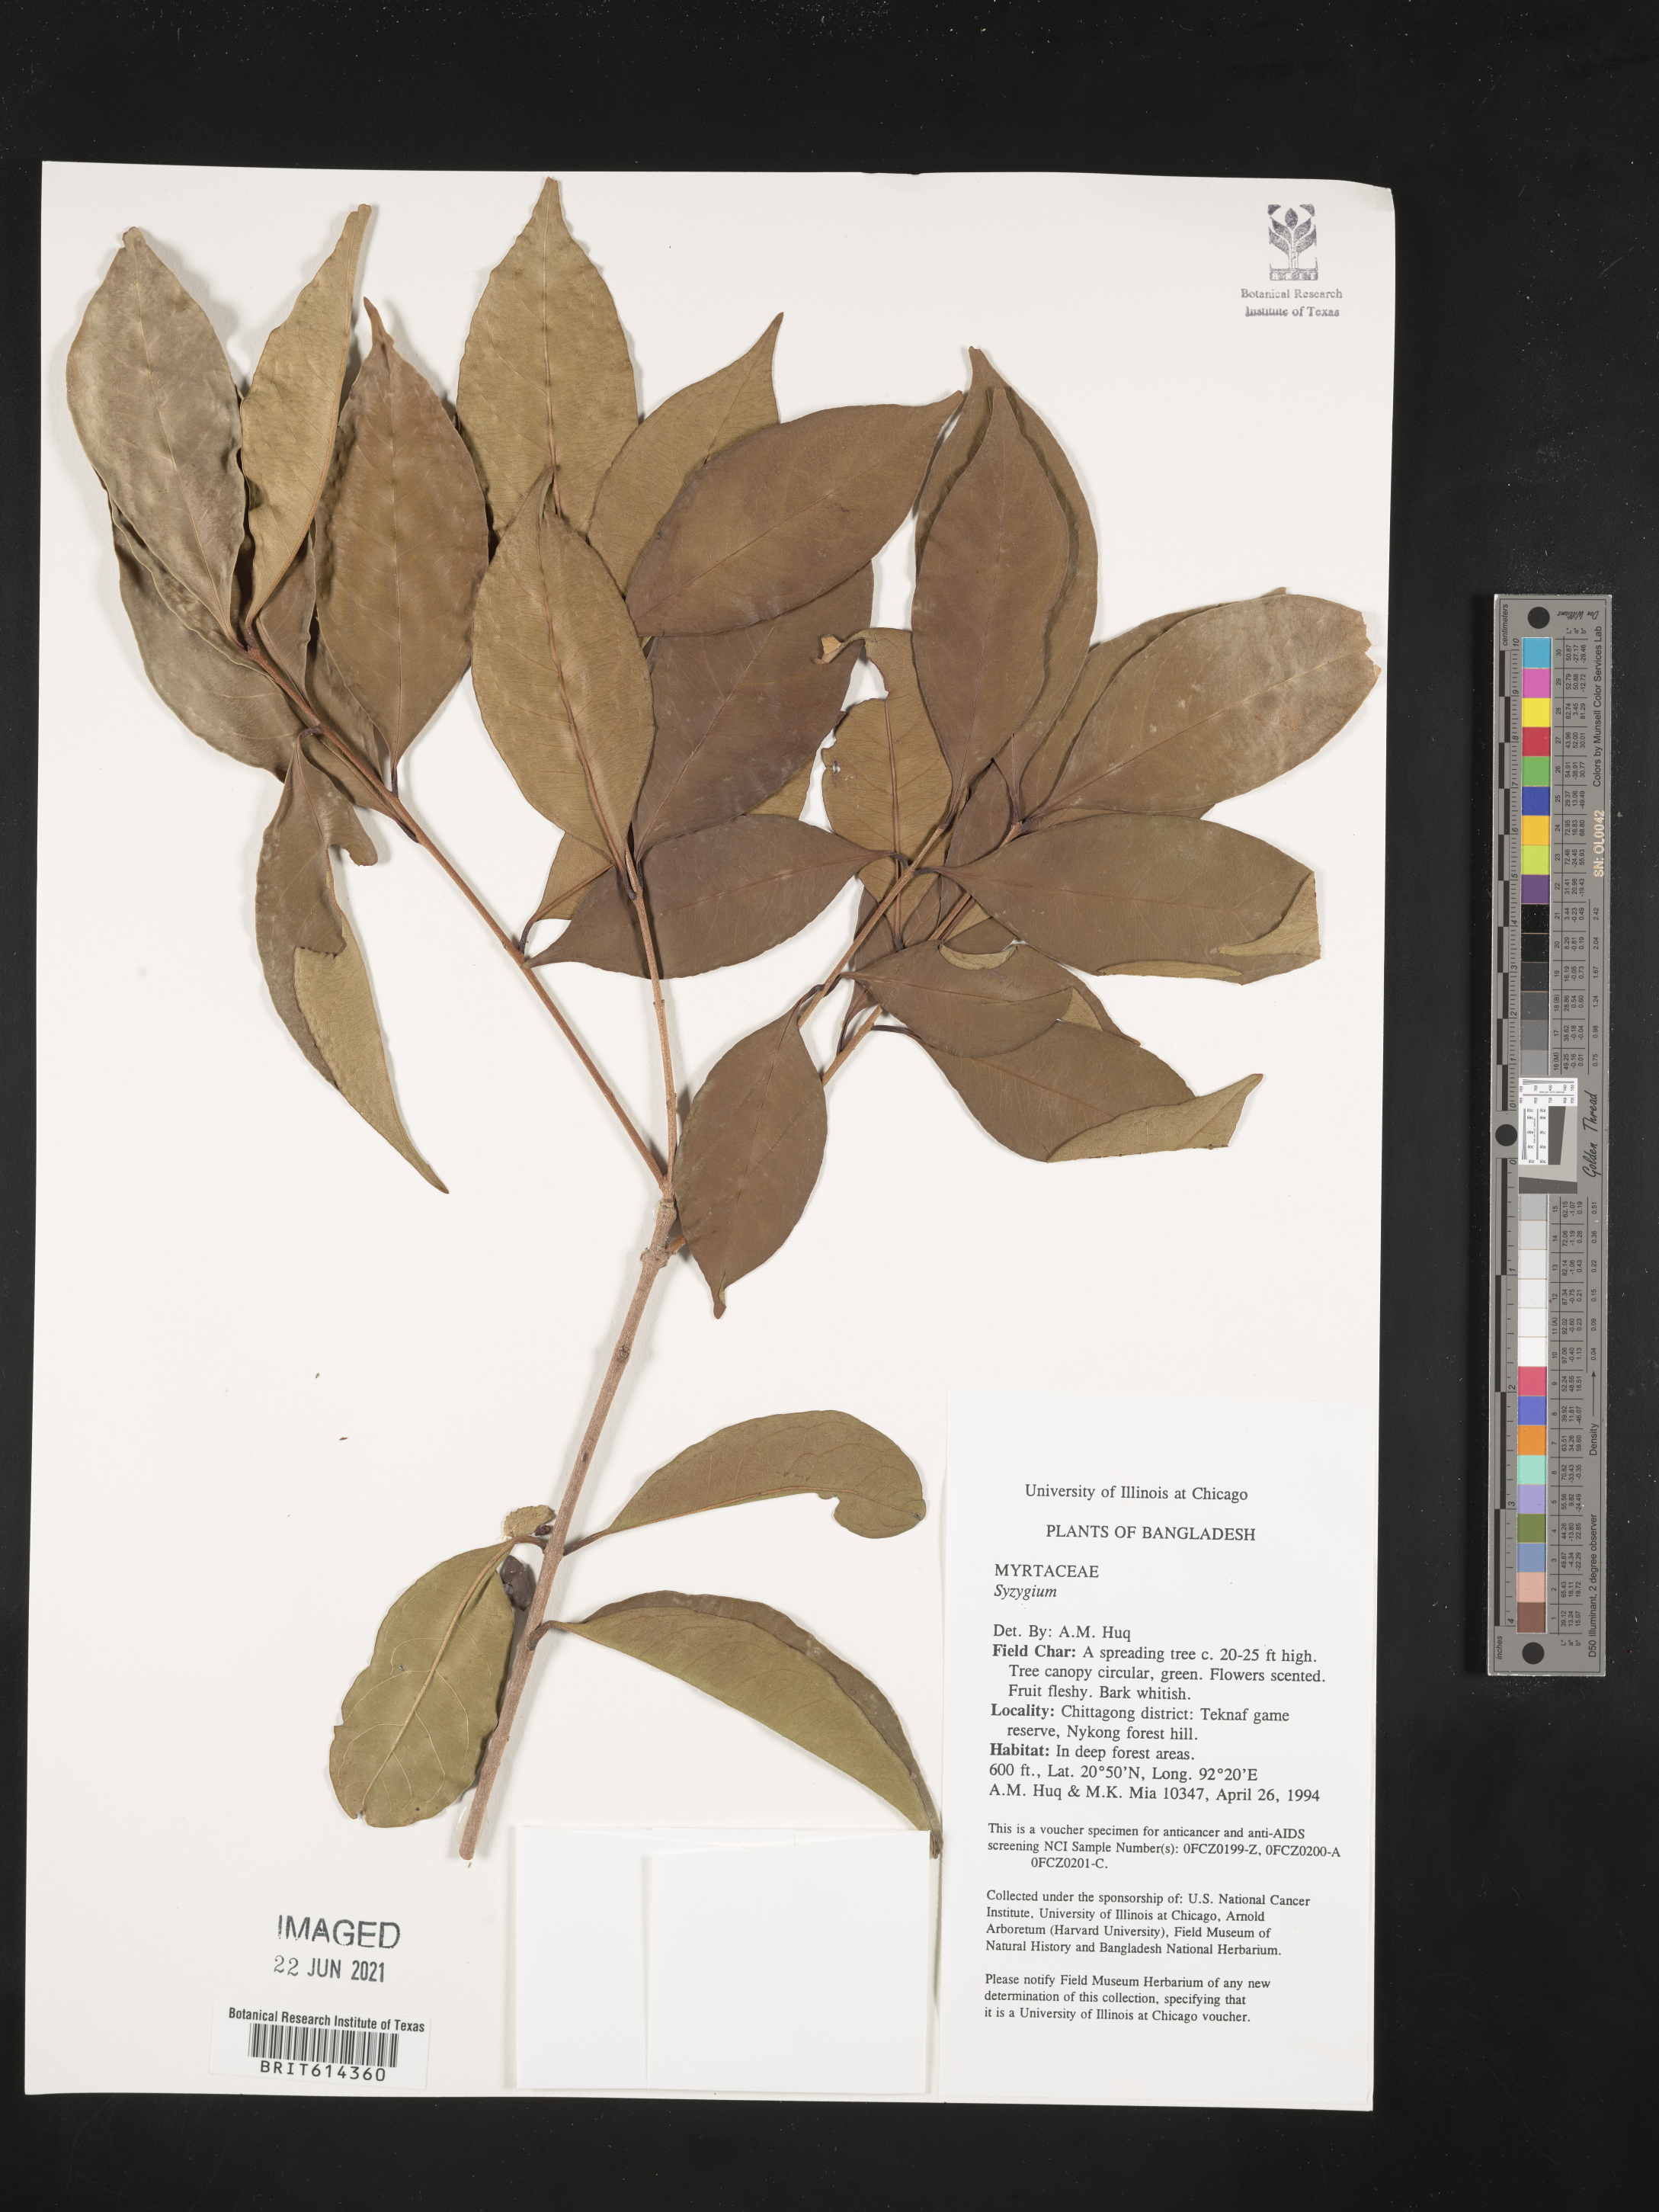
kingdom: Plantae
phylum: Tracheophyta
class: Magnoliopsida
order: Myrtales
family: Myrtaceae
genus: Syzygium
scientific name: Syzygium
